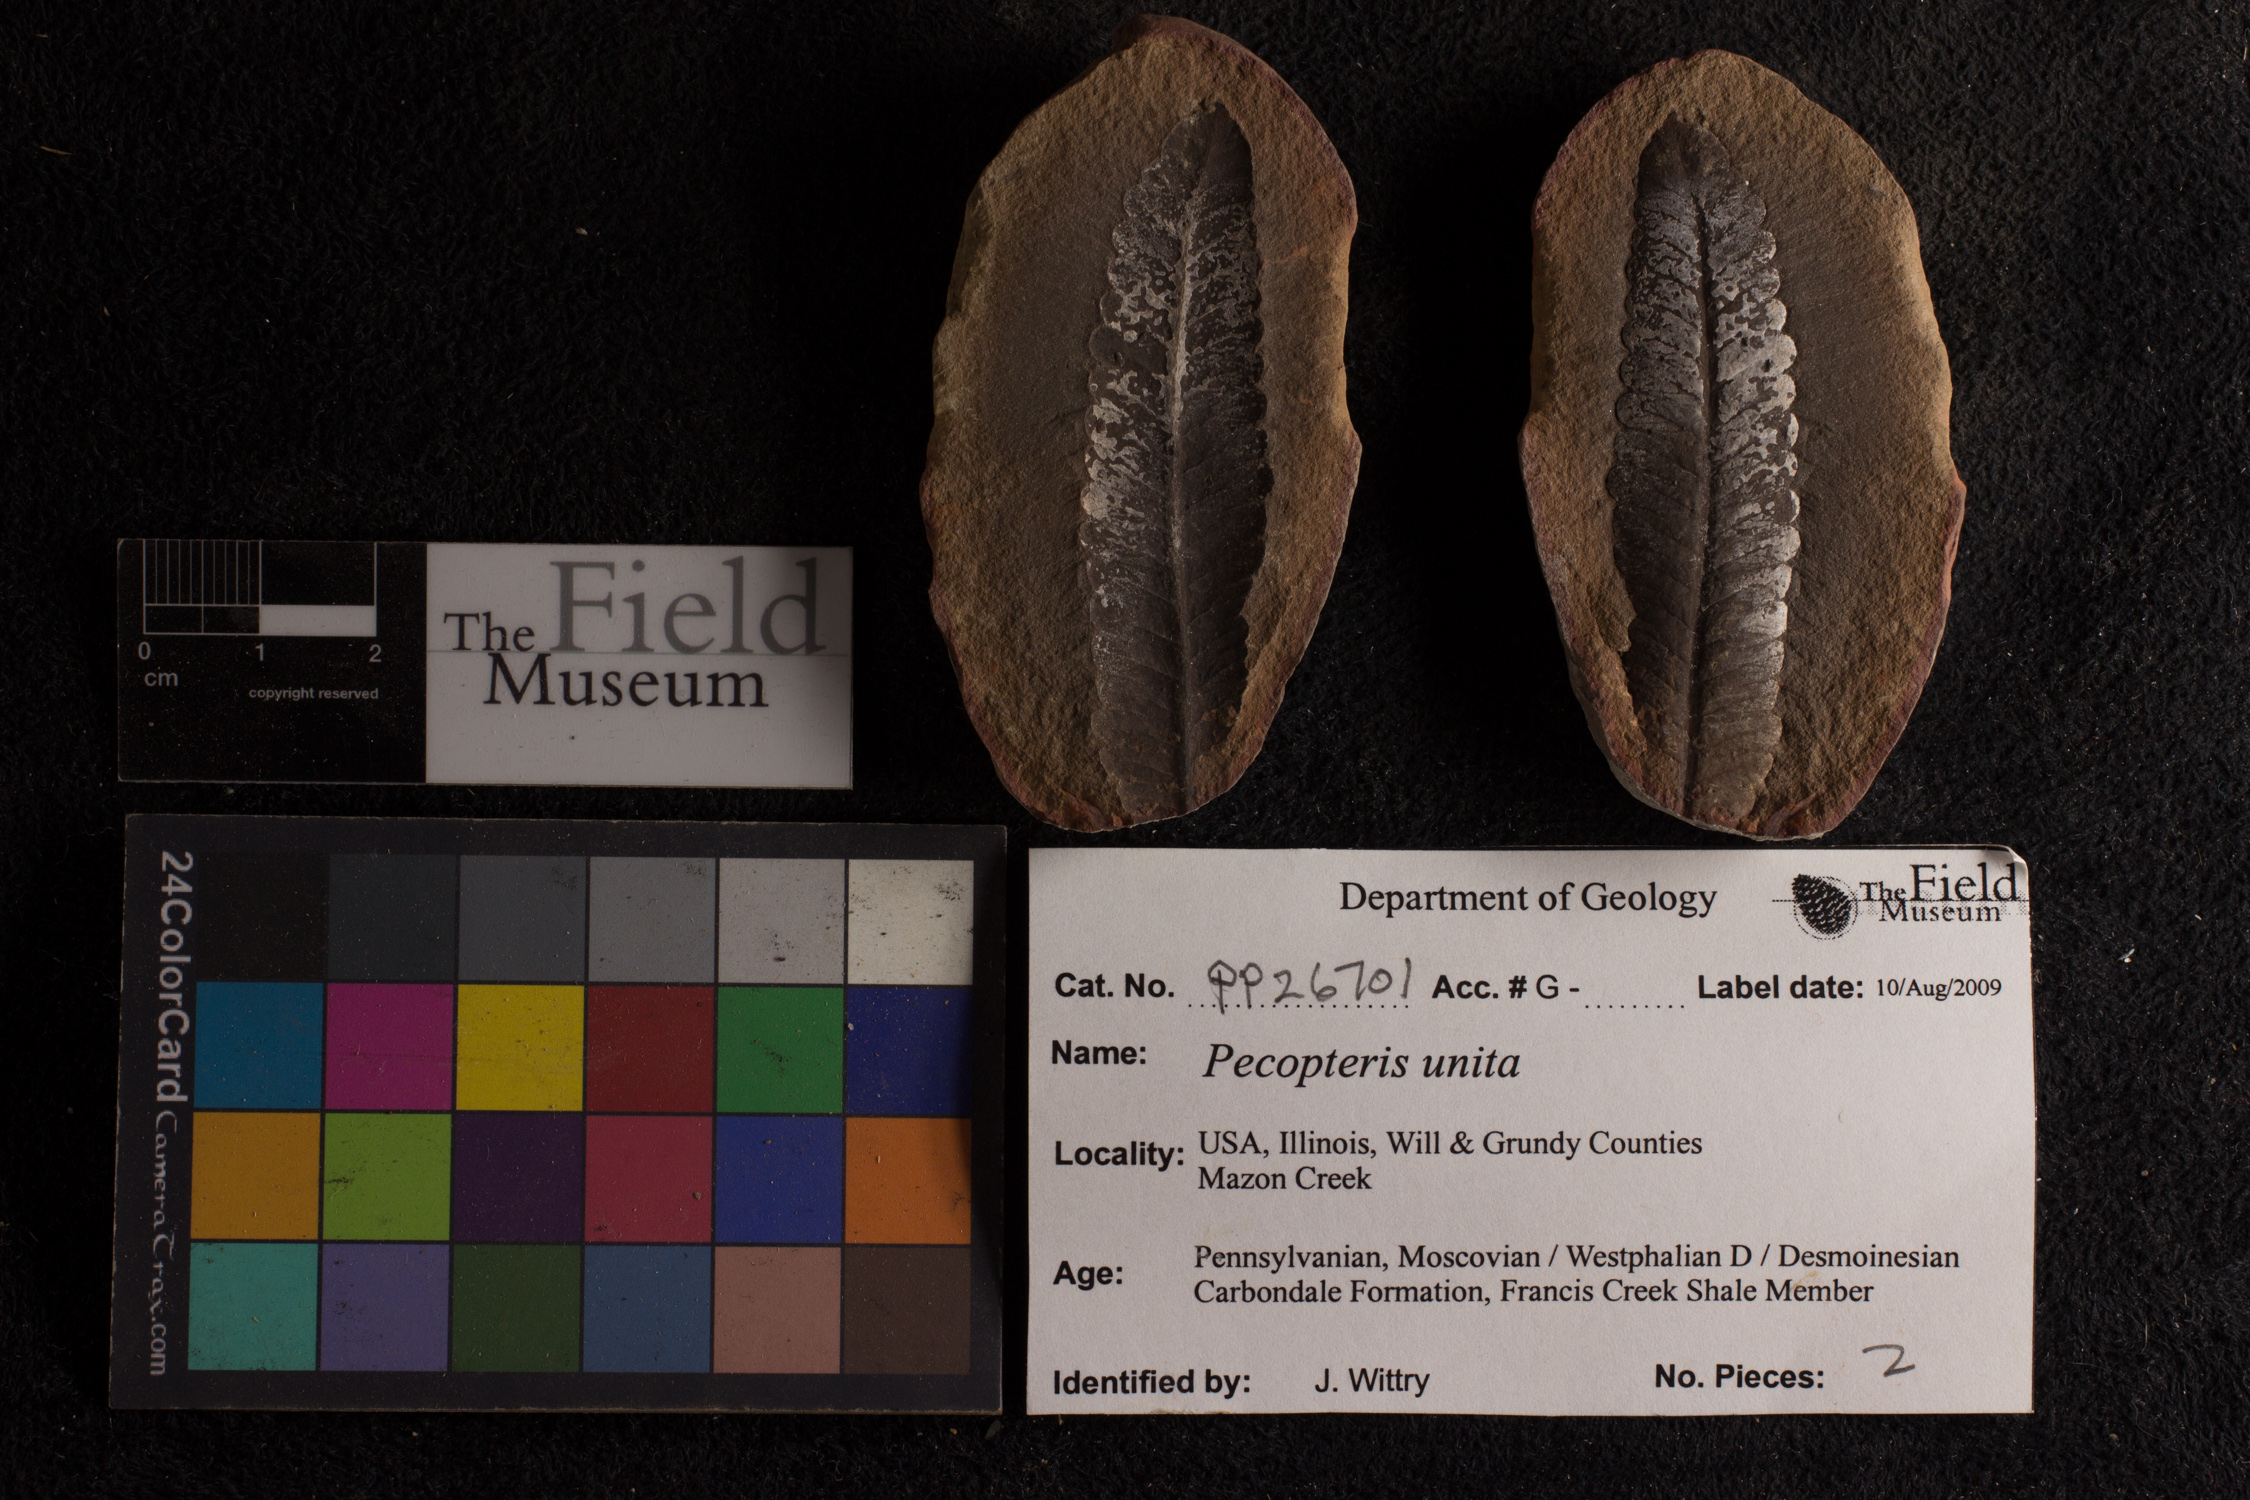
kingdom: Plantae
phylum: Tracheophyta
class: Polypodiopsida
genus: Diplazites
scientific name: Diplazites
